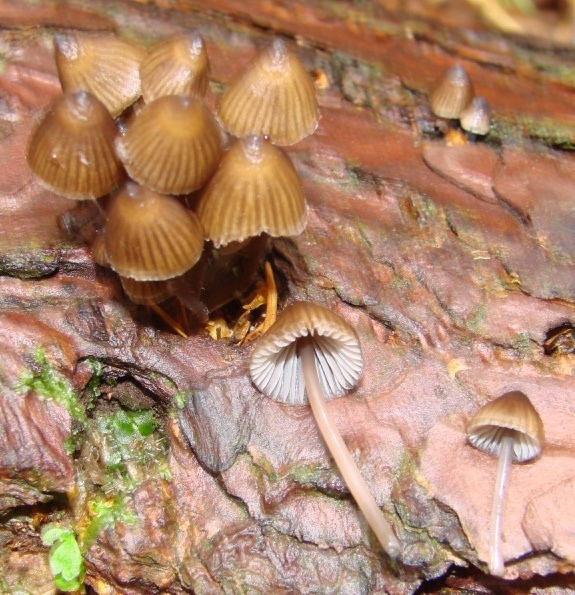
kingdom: Fungi
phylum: Basidiomycota
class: Agaricomycetes
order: Agaricales
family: Mycenaceae
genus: Mycena
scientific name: Mycena stipata
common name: stinkende huesvamp
